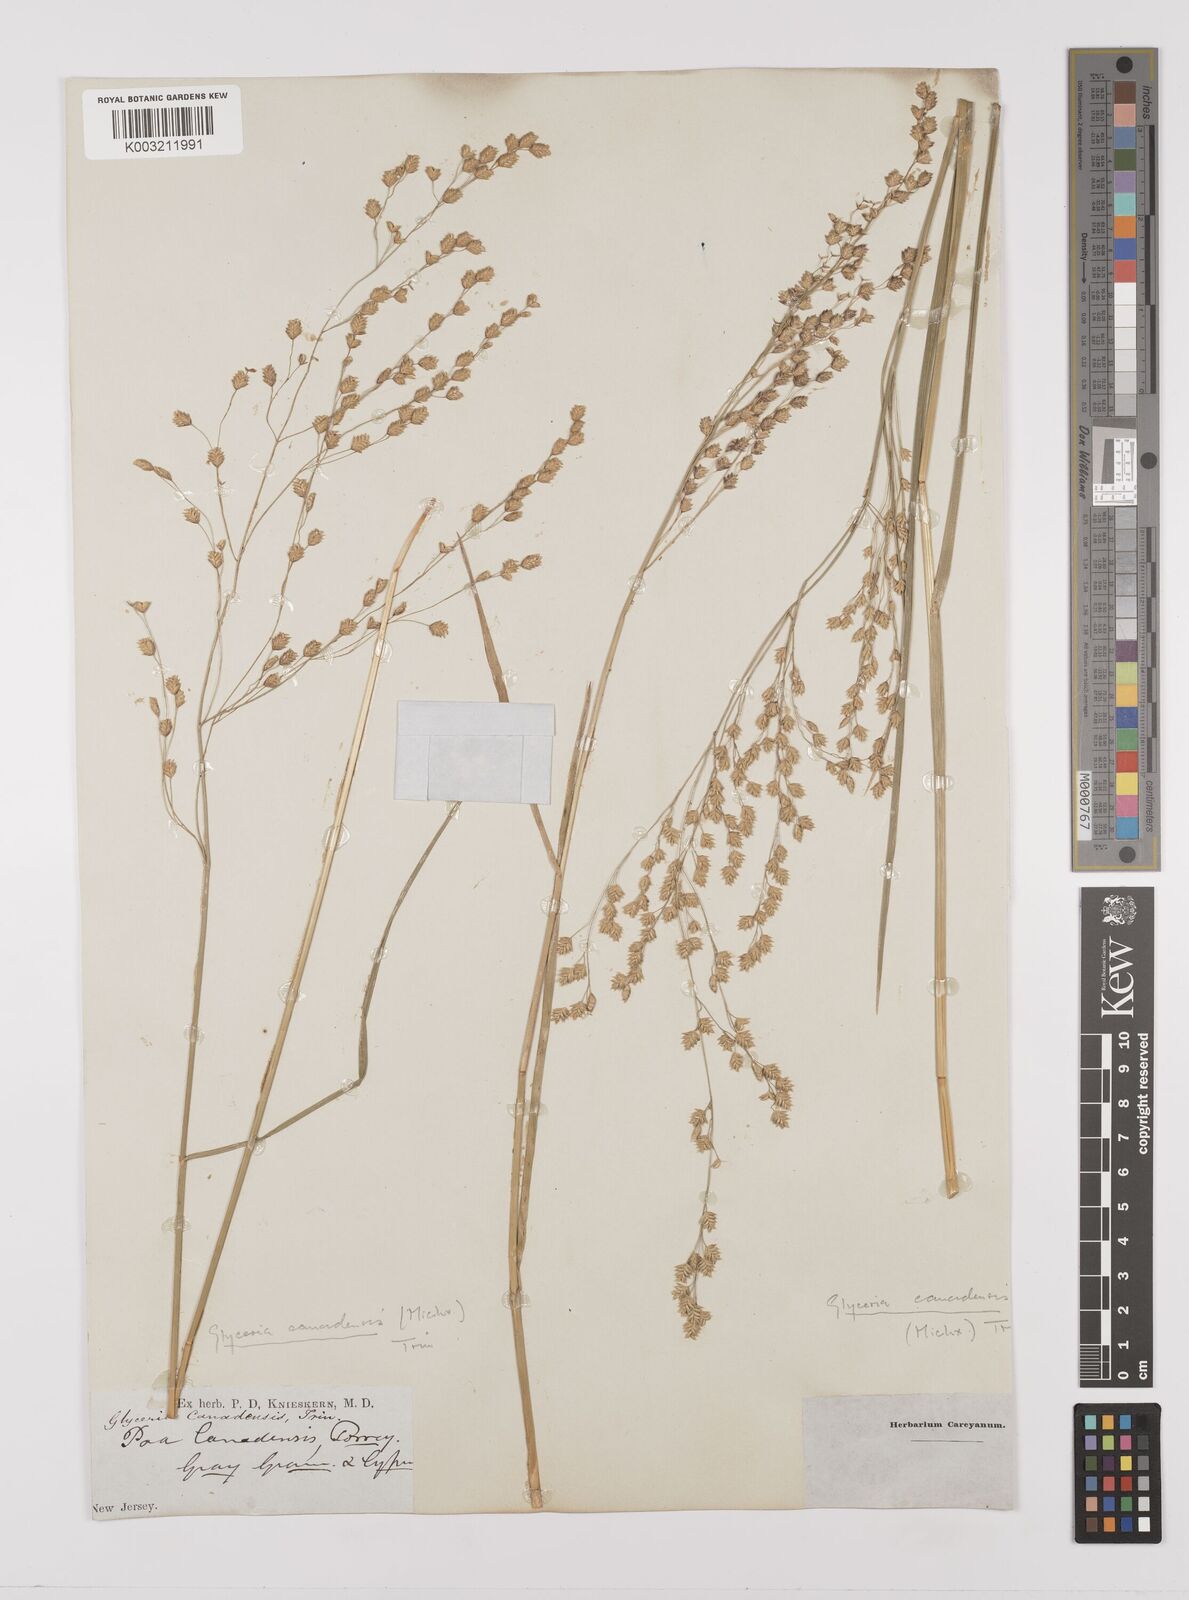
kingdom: Plantae
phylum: Tracheophyta
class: Liliopsida
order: Poales
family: Poaceae
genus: Glyceria
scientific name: Glyceria canadensis
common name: Canada mannagrass
